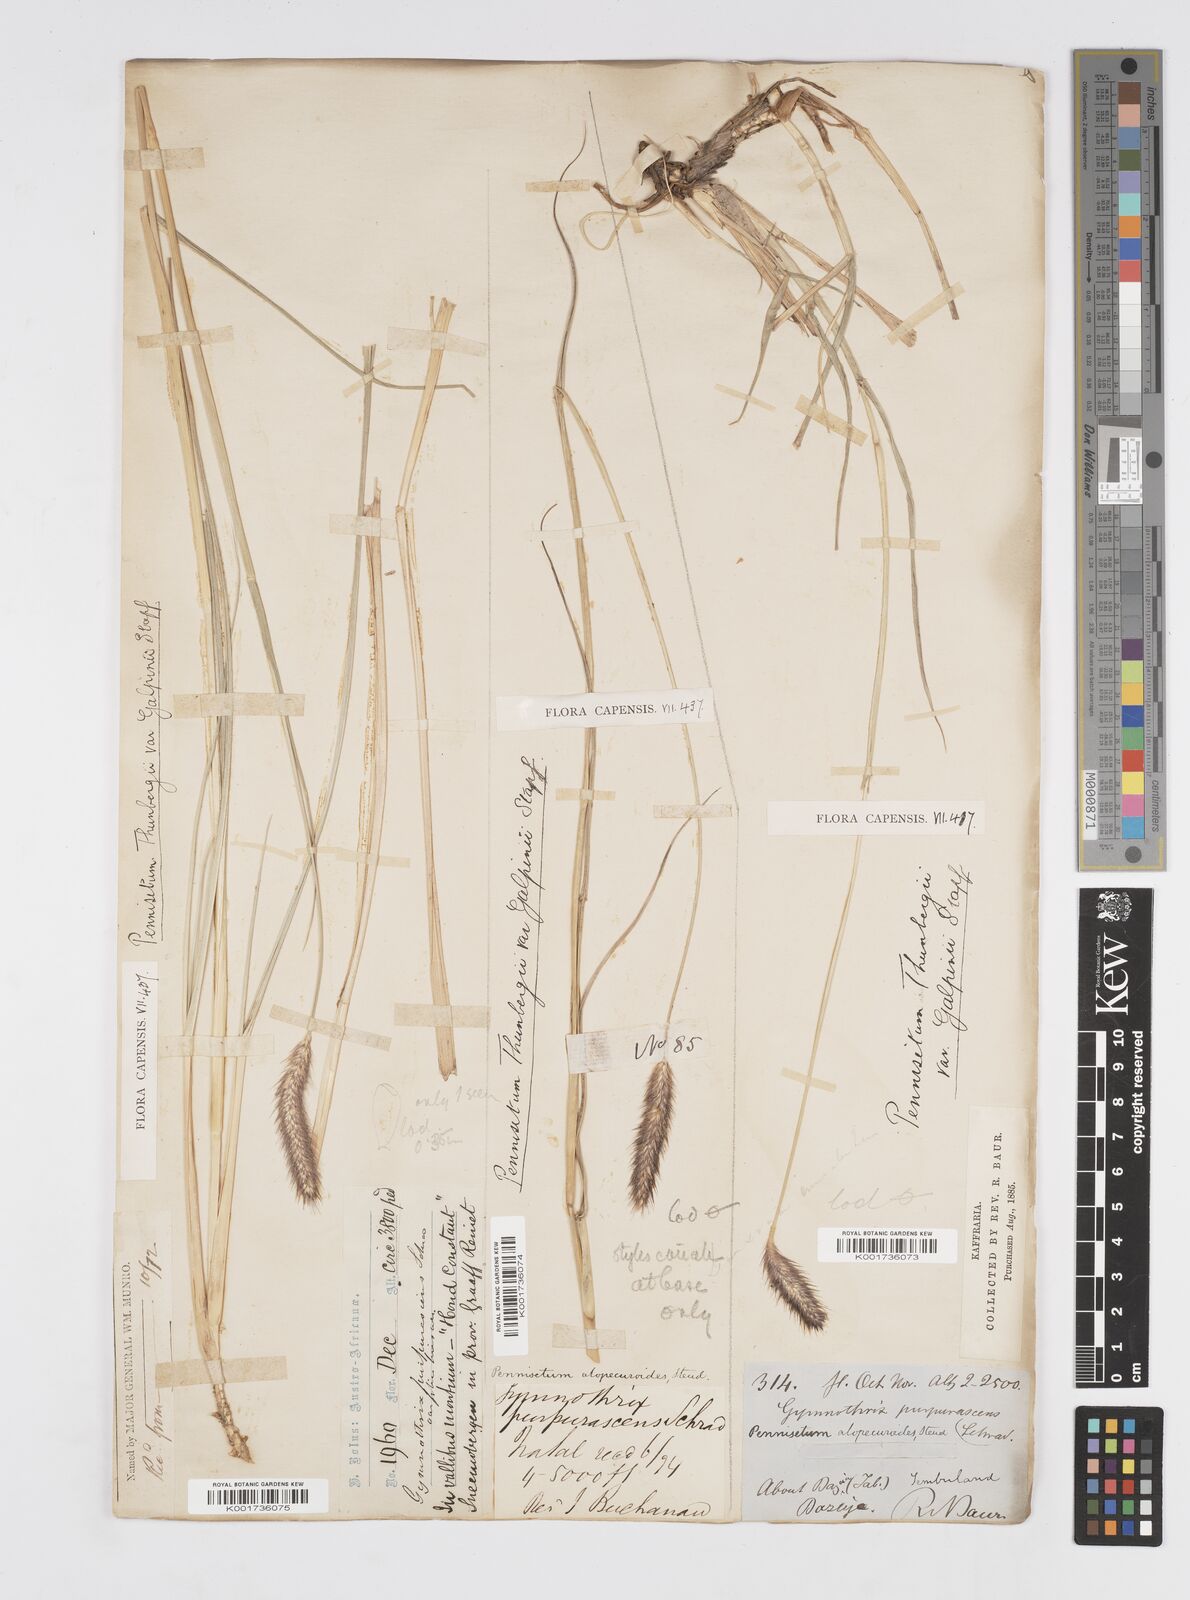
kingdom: Plantae
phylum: Tracheophyta
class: Liliopsida
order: Poales
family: Poaceae
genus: Cenchrus
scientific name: Cenchrus geniculatus
